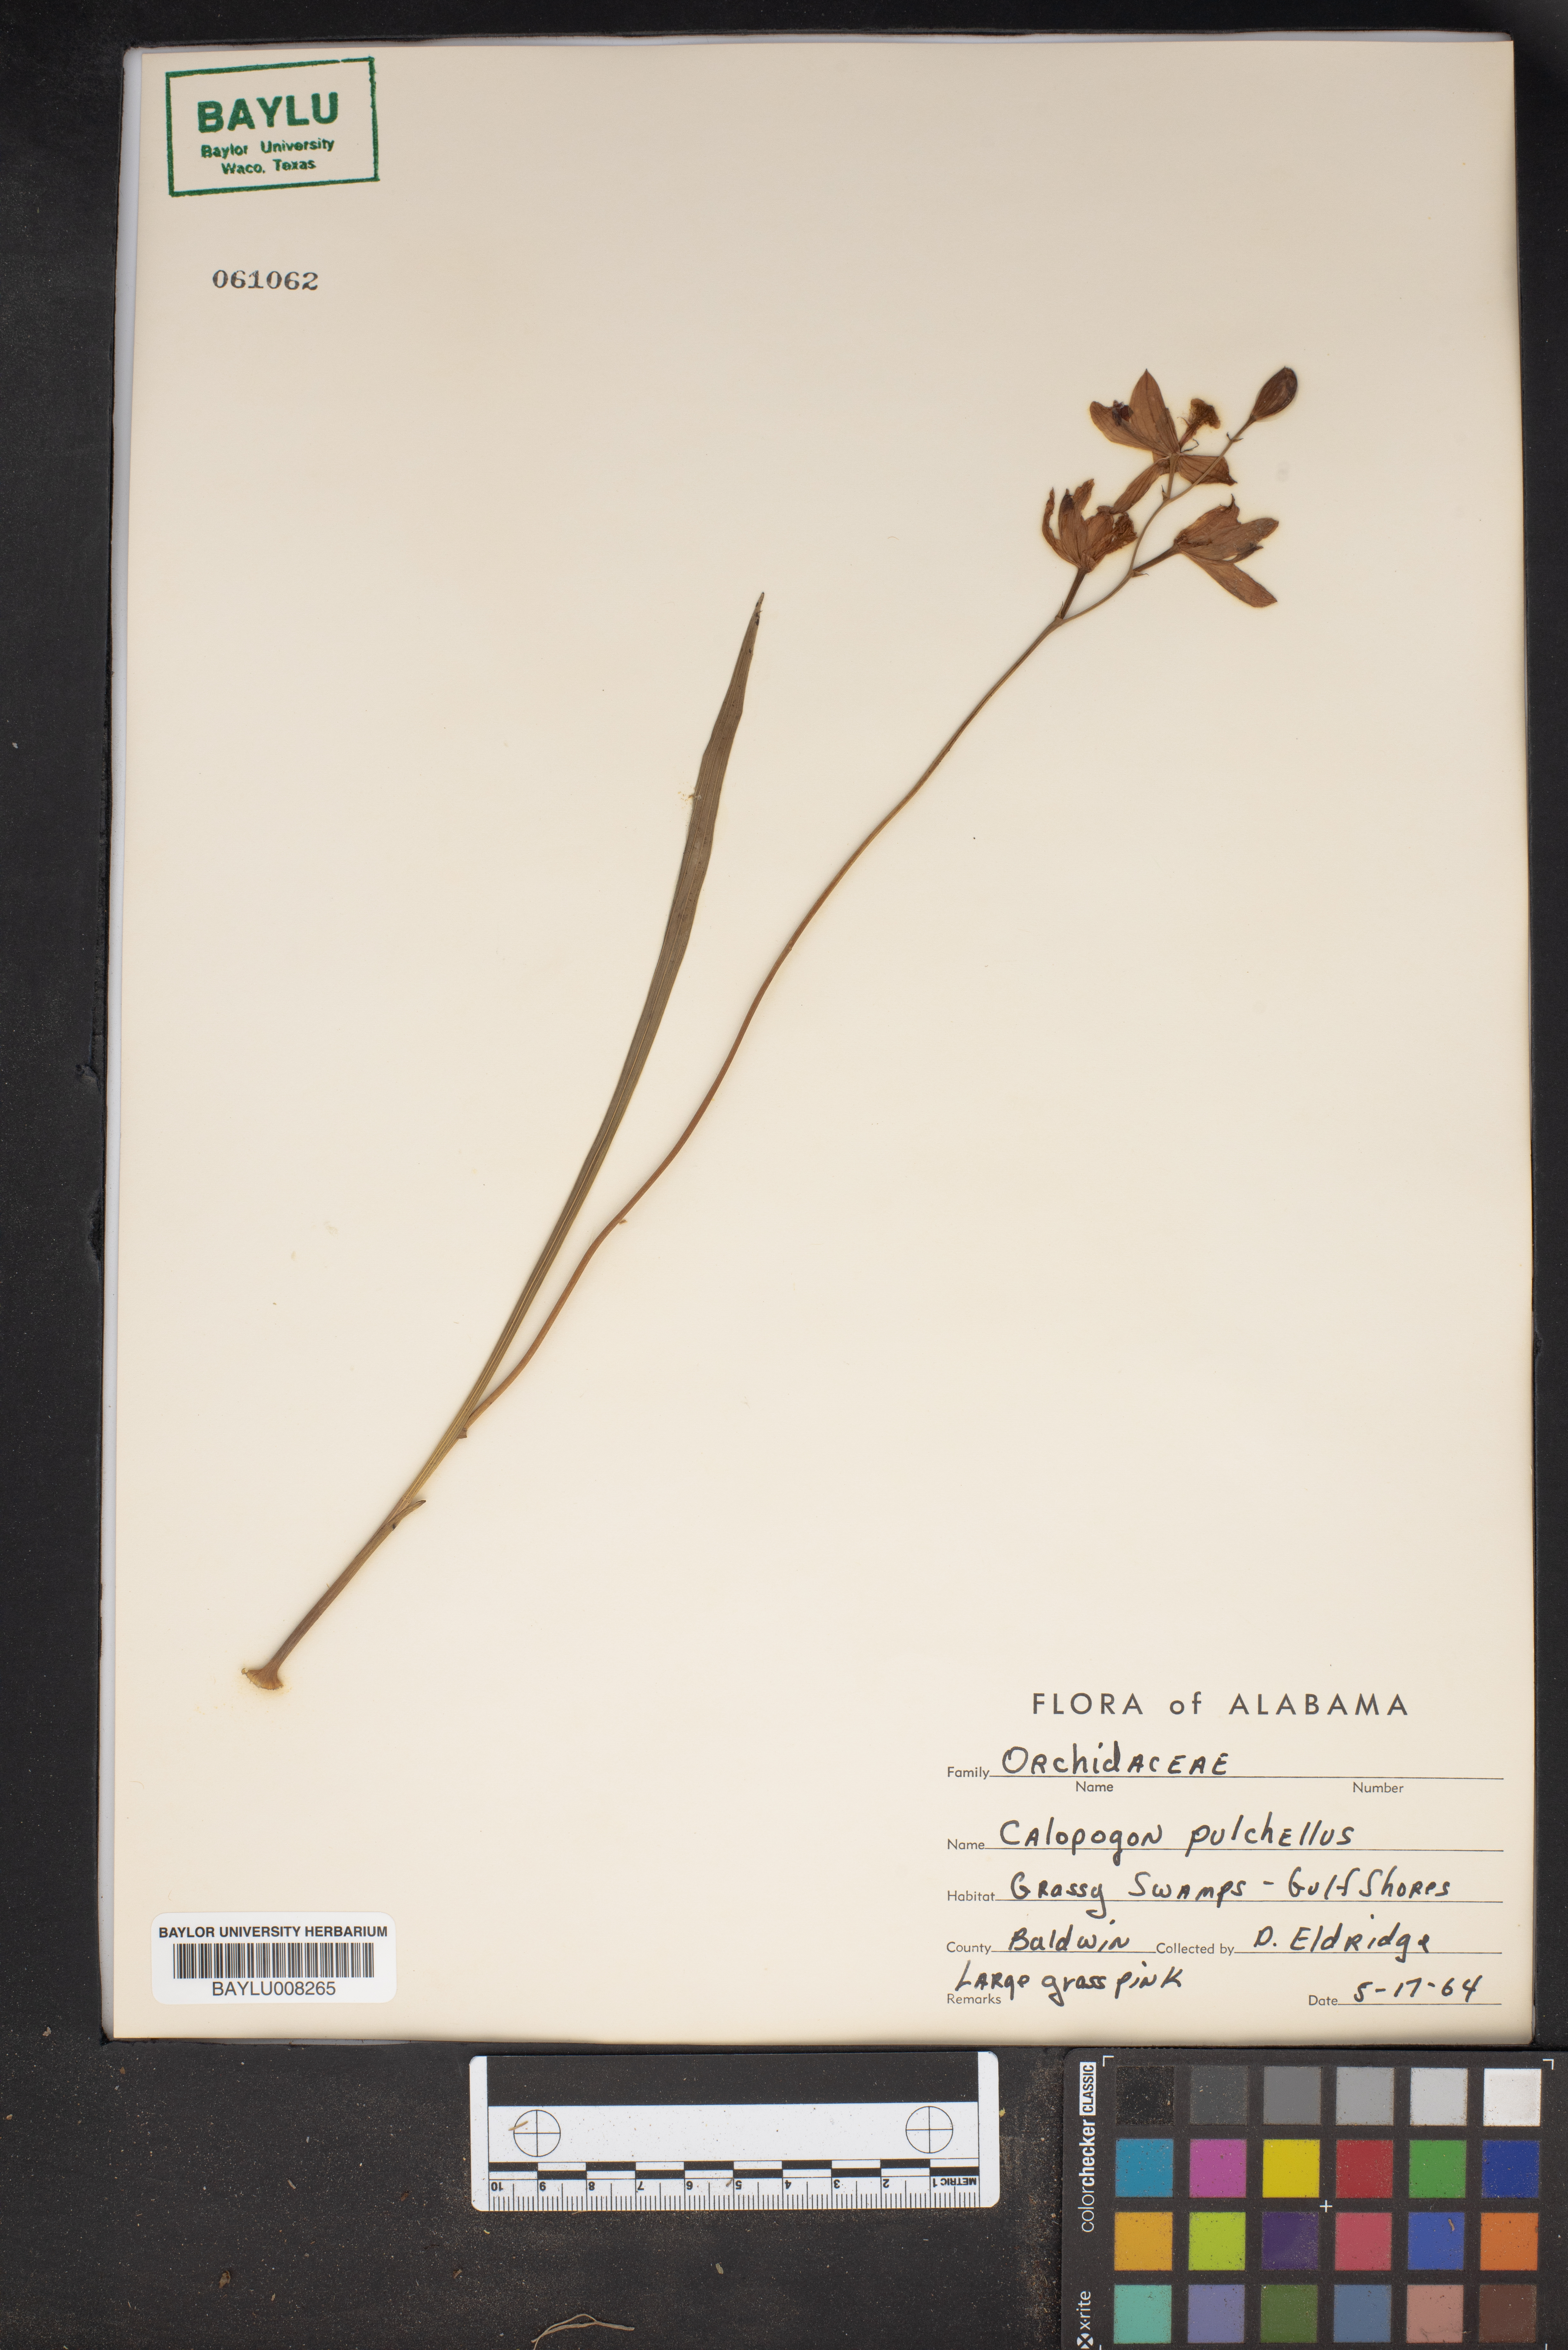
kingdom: Plantae
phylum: Tracheophyta
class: Liliopsida
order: Asparagales
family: Orchidaceae
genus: Calopogon
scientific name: Calopogon tuberosus
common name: Grass-pink
